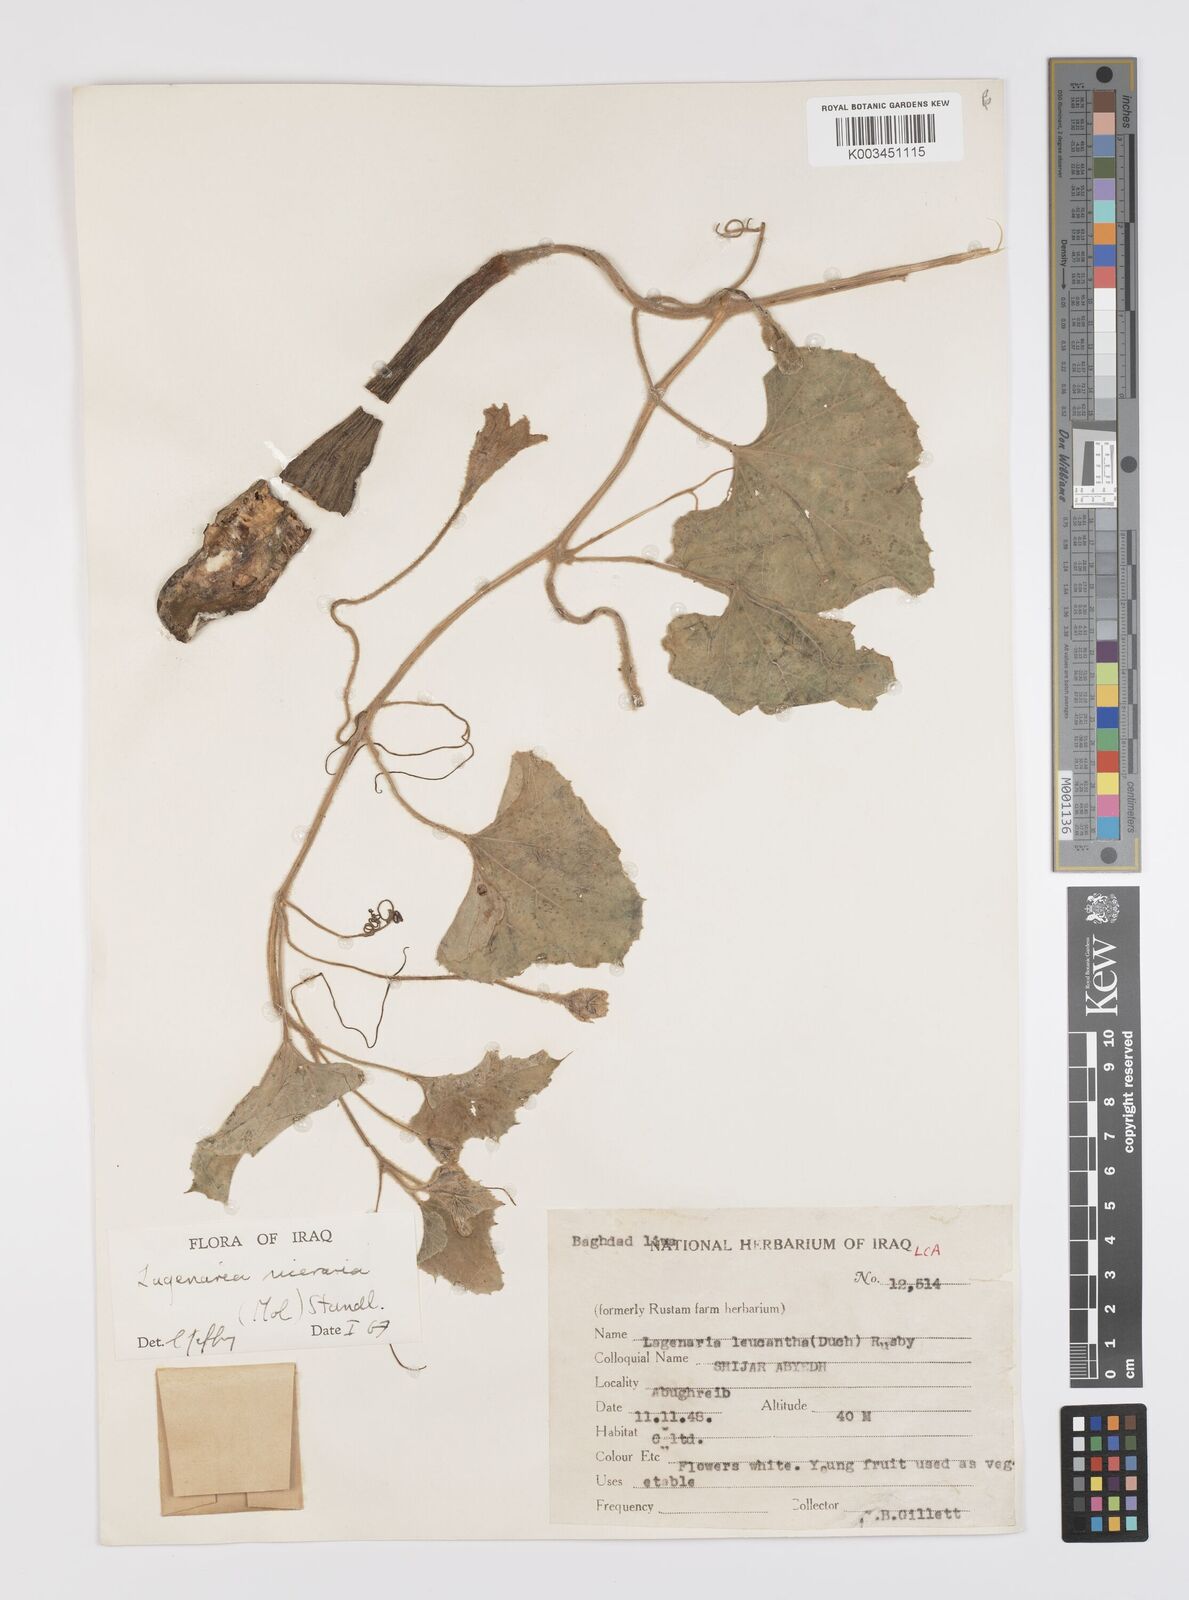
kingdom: Plantae
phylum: Tracheophyta
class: Magnoliopsida
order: Cucurbitales
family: Cucurbitaceae
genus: Lagenaria
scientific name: Lagenaria siceraria
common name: Bottle gourd
